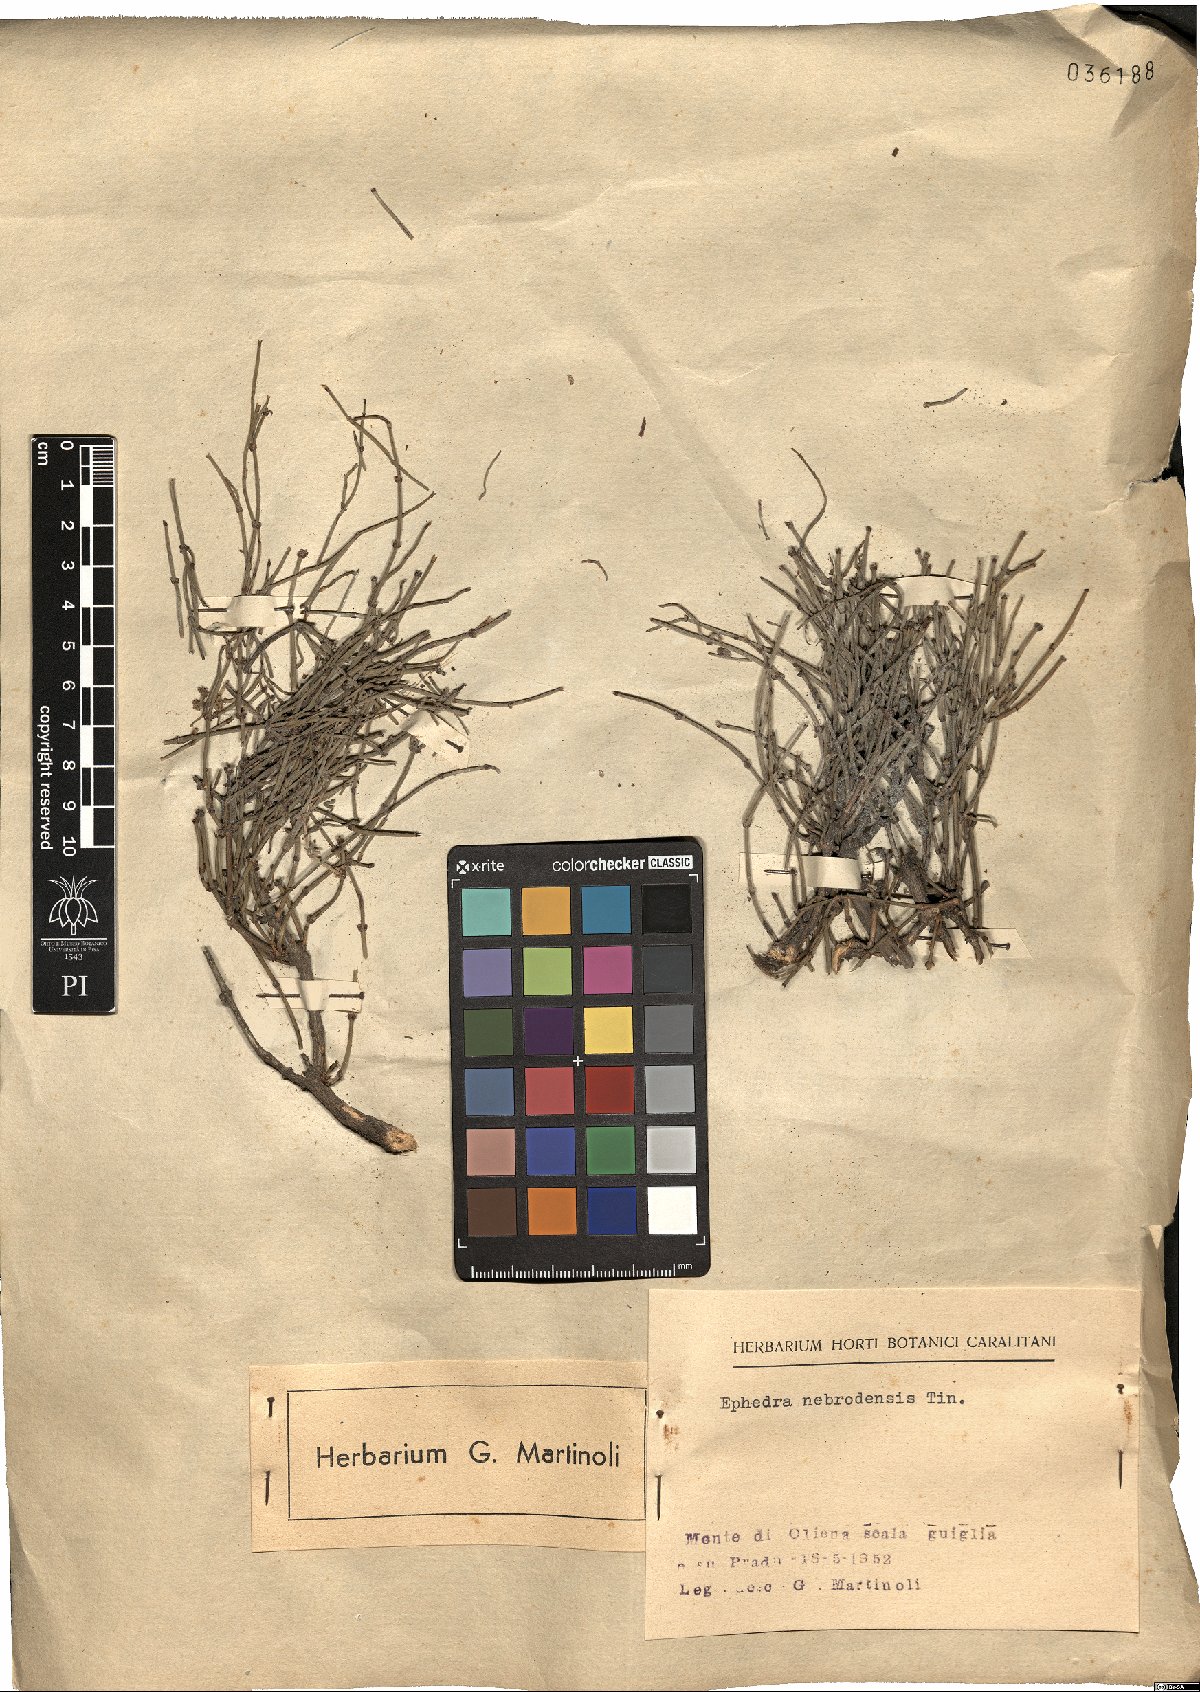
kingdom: Plantae
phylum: Tracheophyta
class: Gnetopsida
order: Ephedrales
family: Ephedraceae
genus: Ephedra
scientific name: Ephedra foeminea
